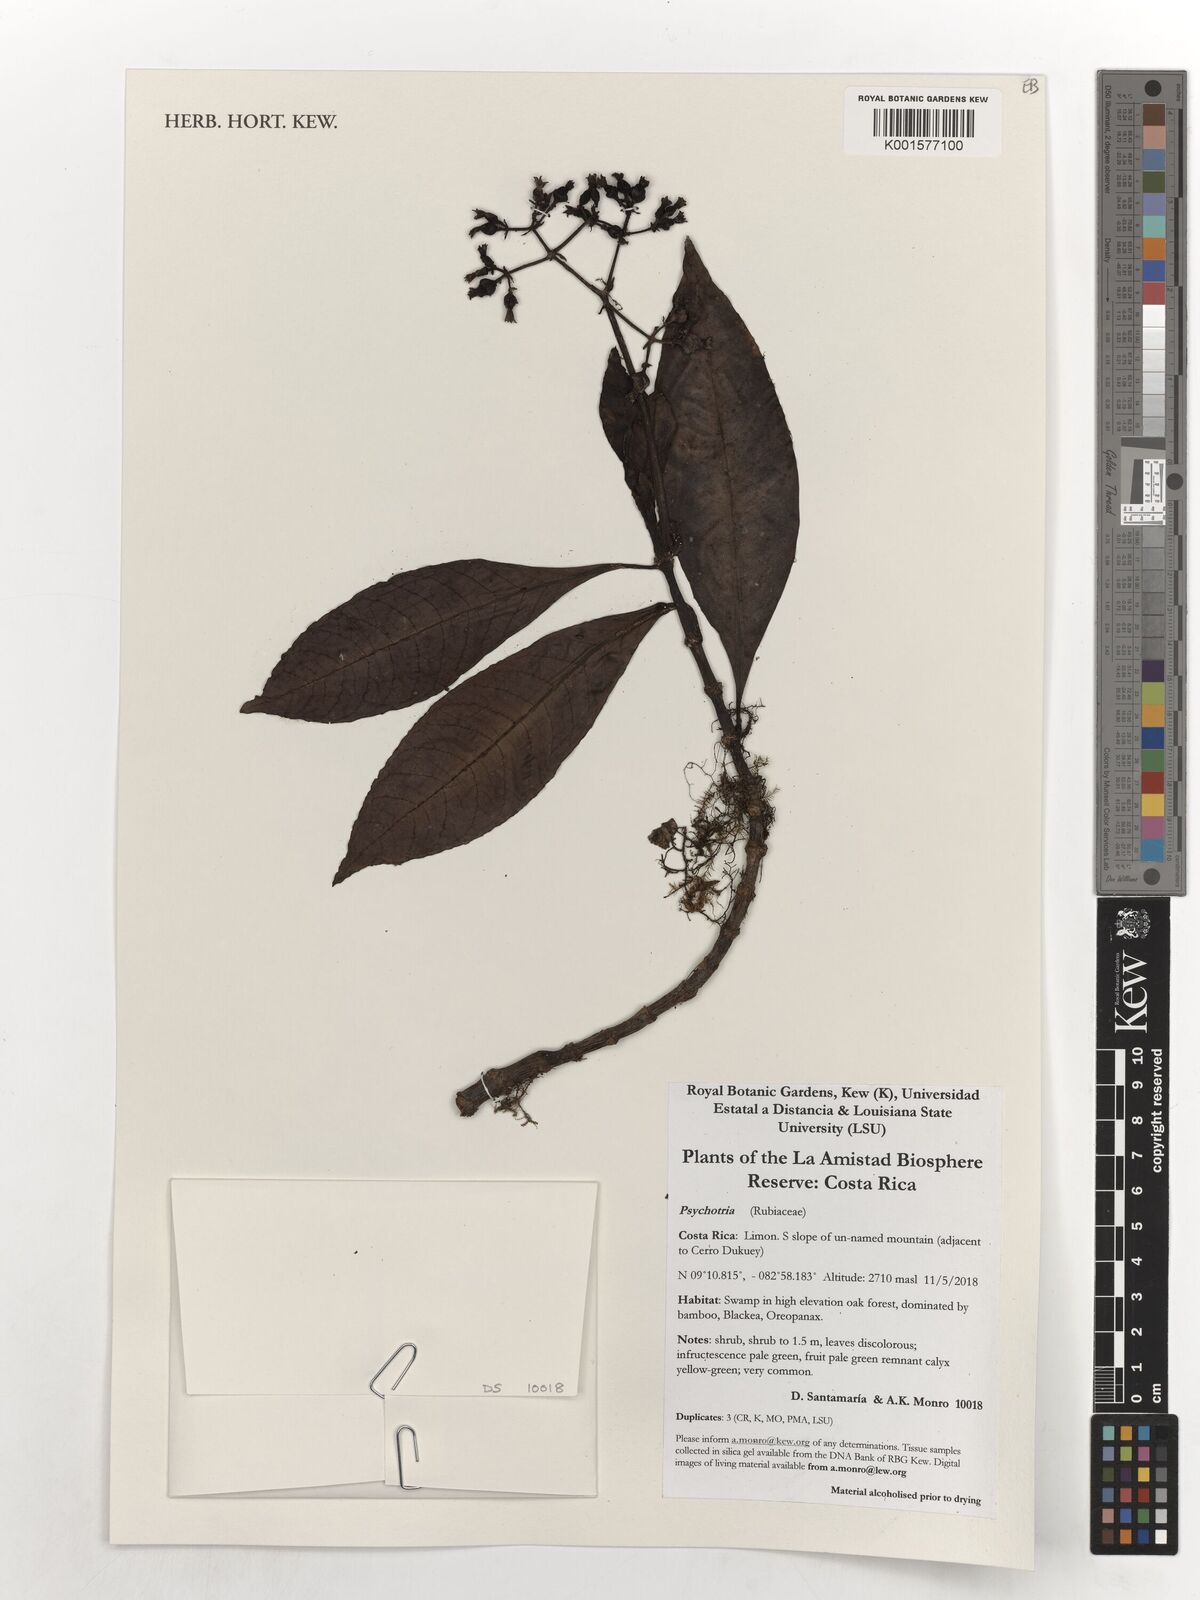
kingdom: Plantae
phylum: Tracheophyta
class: Magnoliopsida
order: Gentianales
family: Rubiaceae
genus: Psychotria
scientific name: Psychotria
